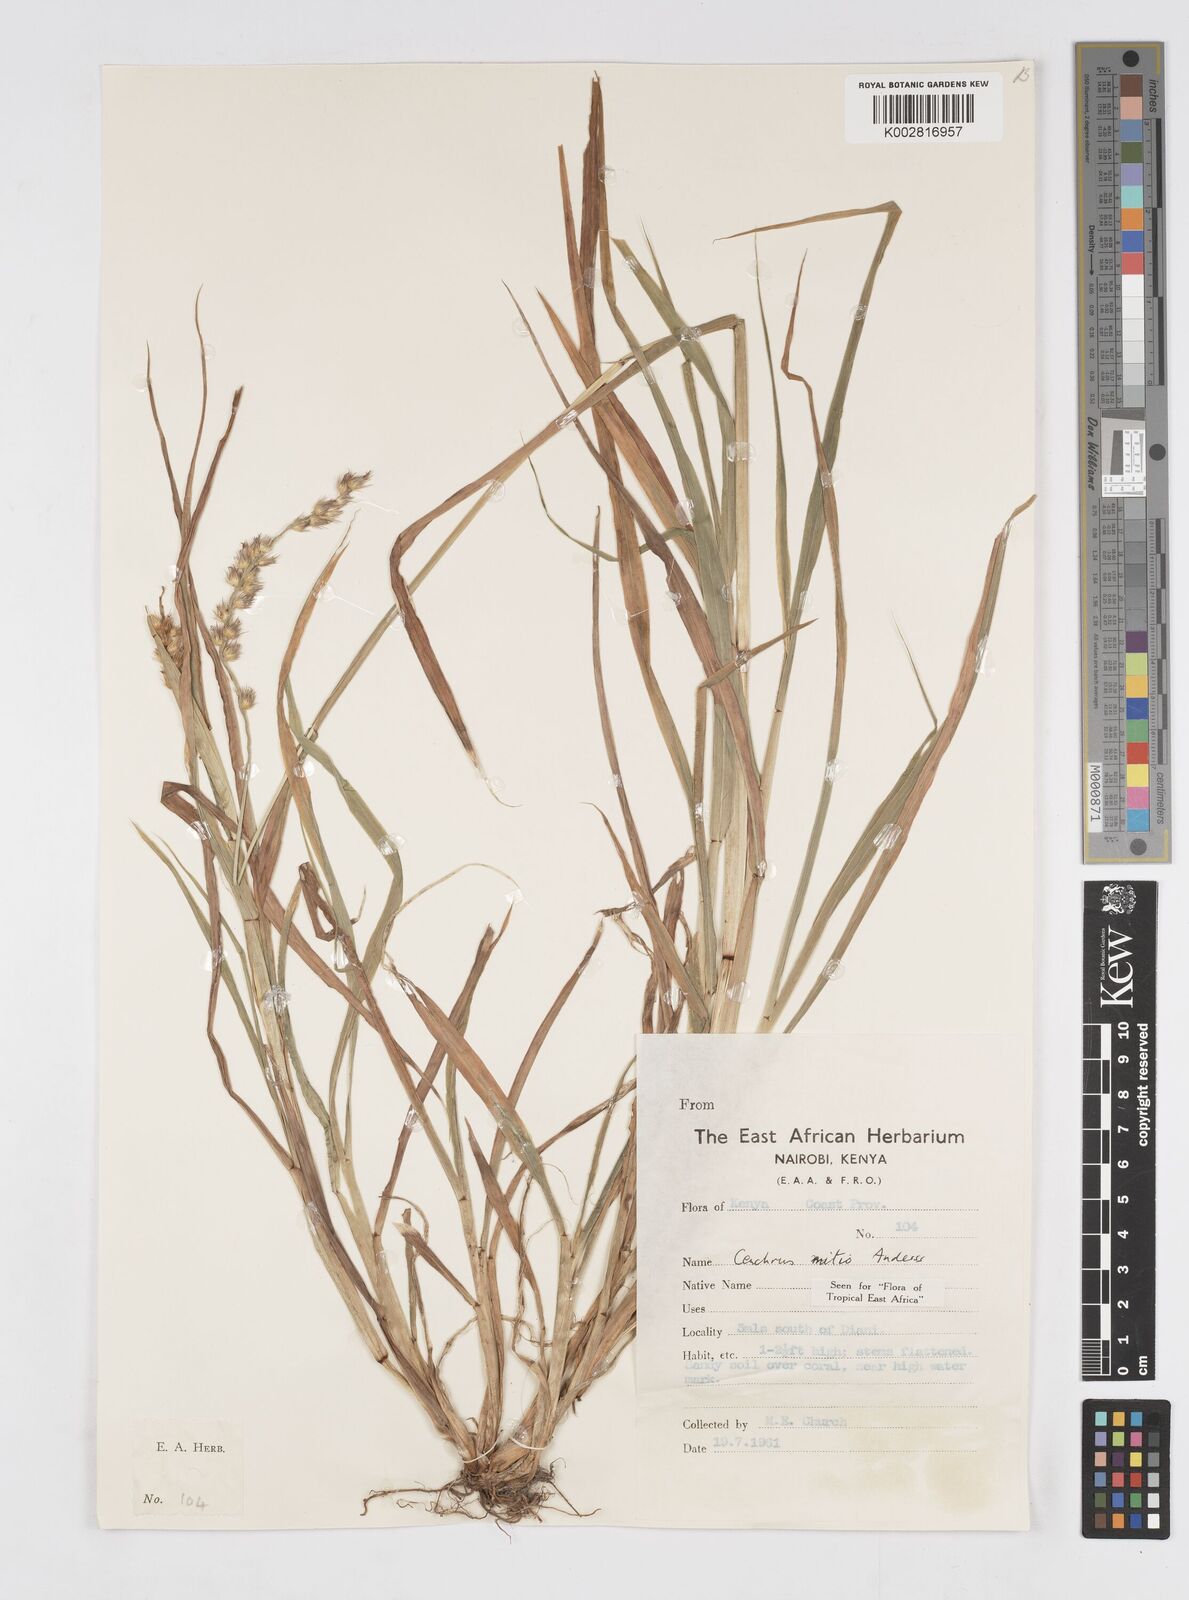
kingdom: Plantae
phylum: Tracheophyta
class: Liliopsida
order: Poales
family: Poaceae
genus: Cenchrus
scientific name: Cenchrus mitis
